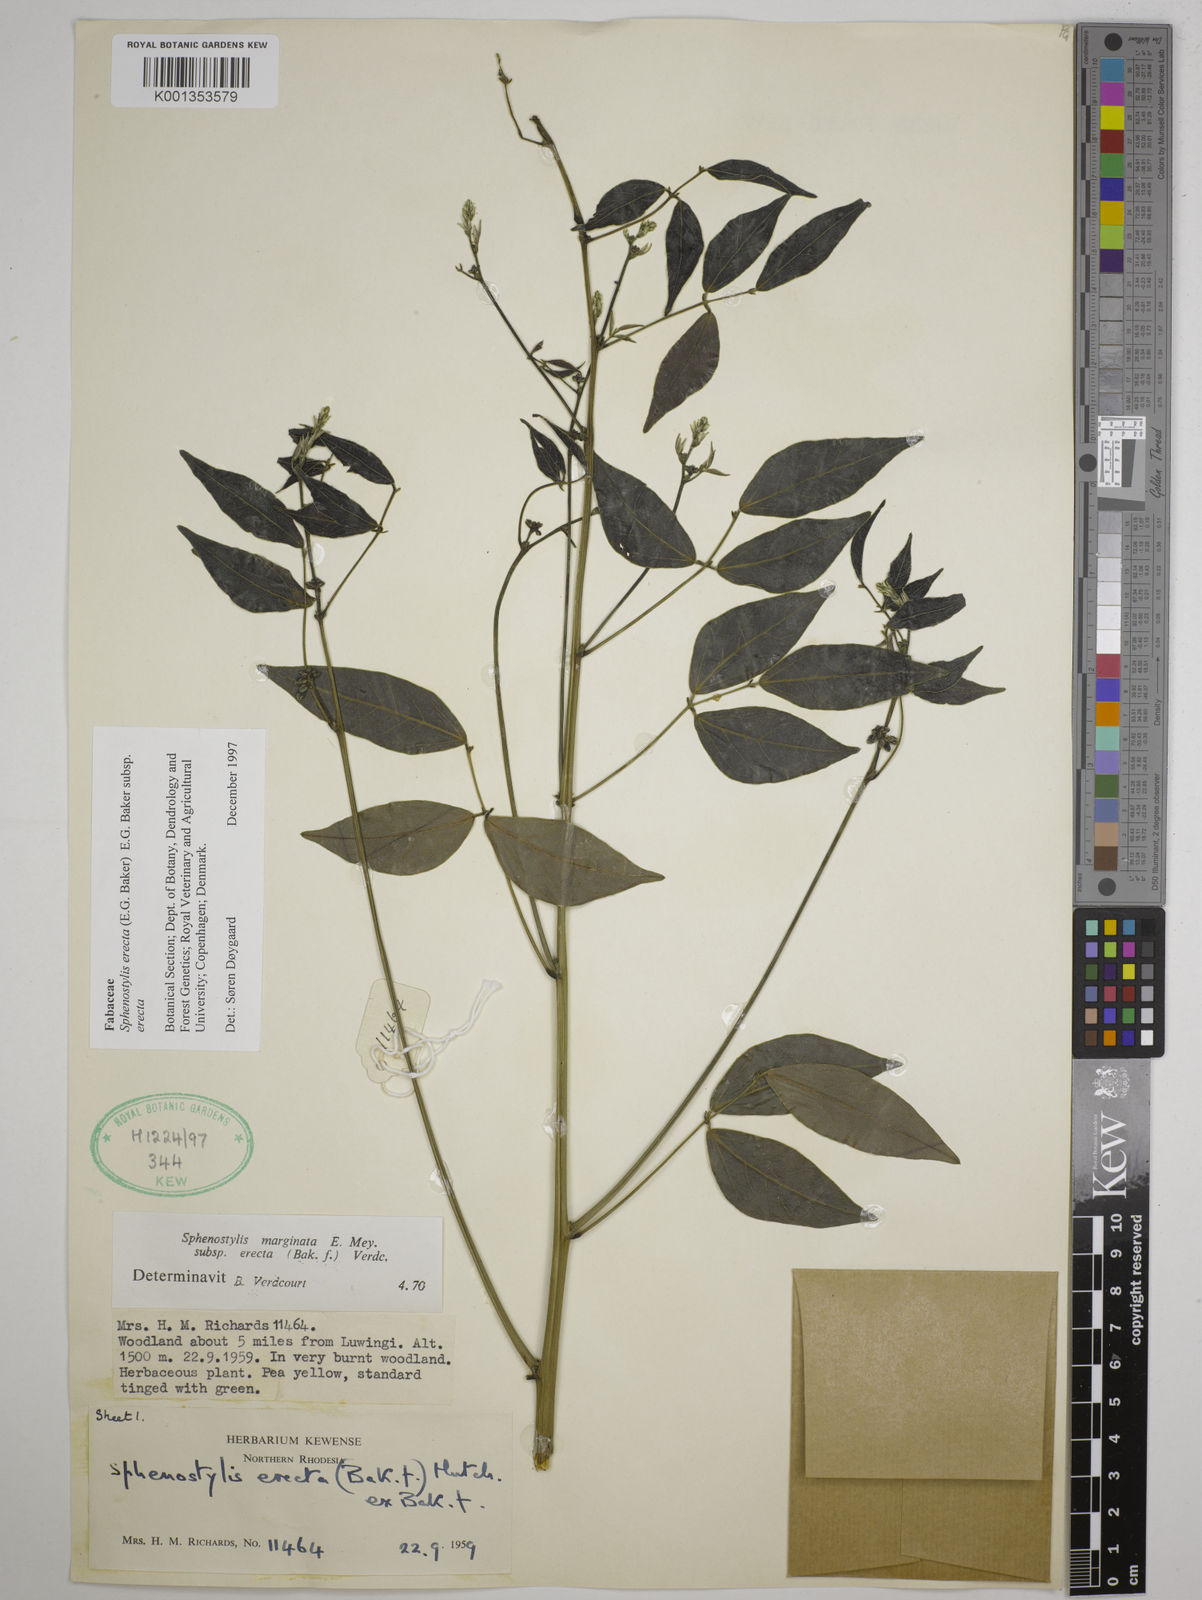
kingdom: Plantae
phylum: Tracheophyta
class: Magnoliopsida
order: Fabales
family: Fabaceae
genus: Sphenostylis
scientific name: Sphenostylis erecta
